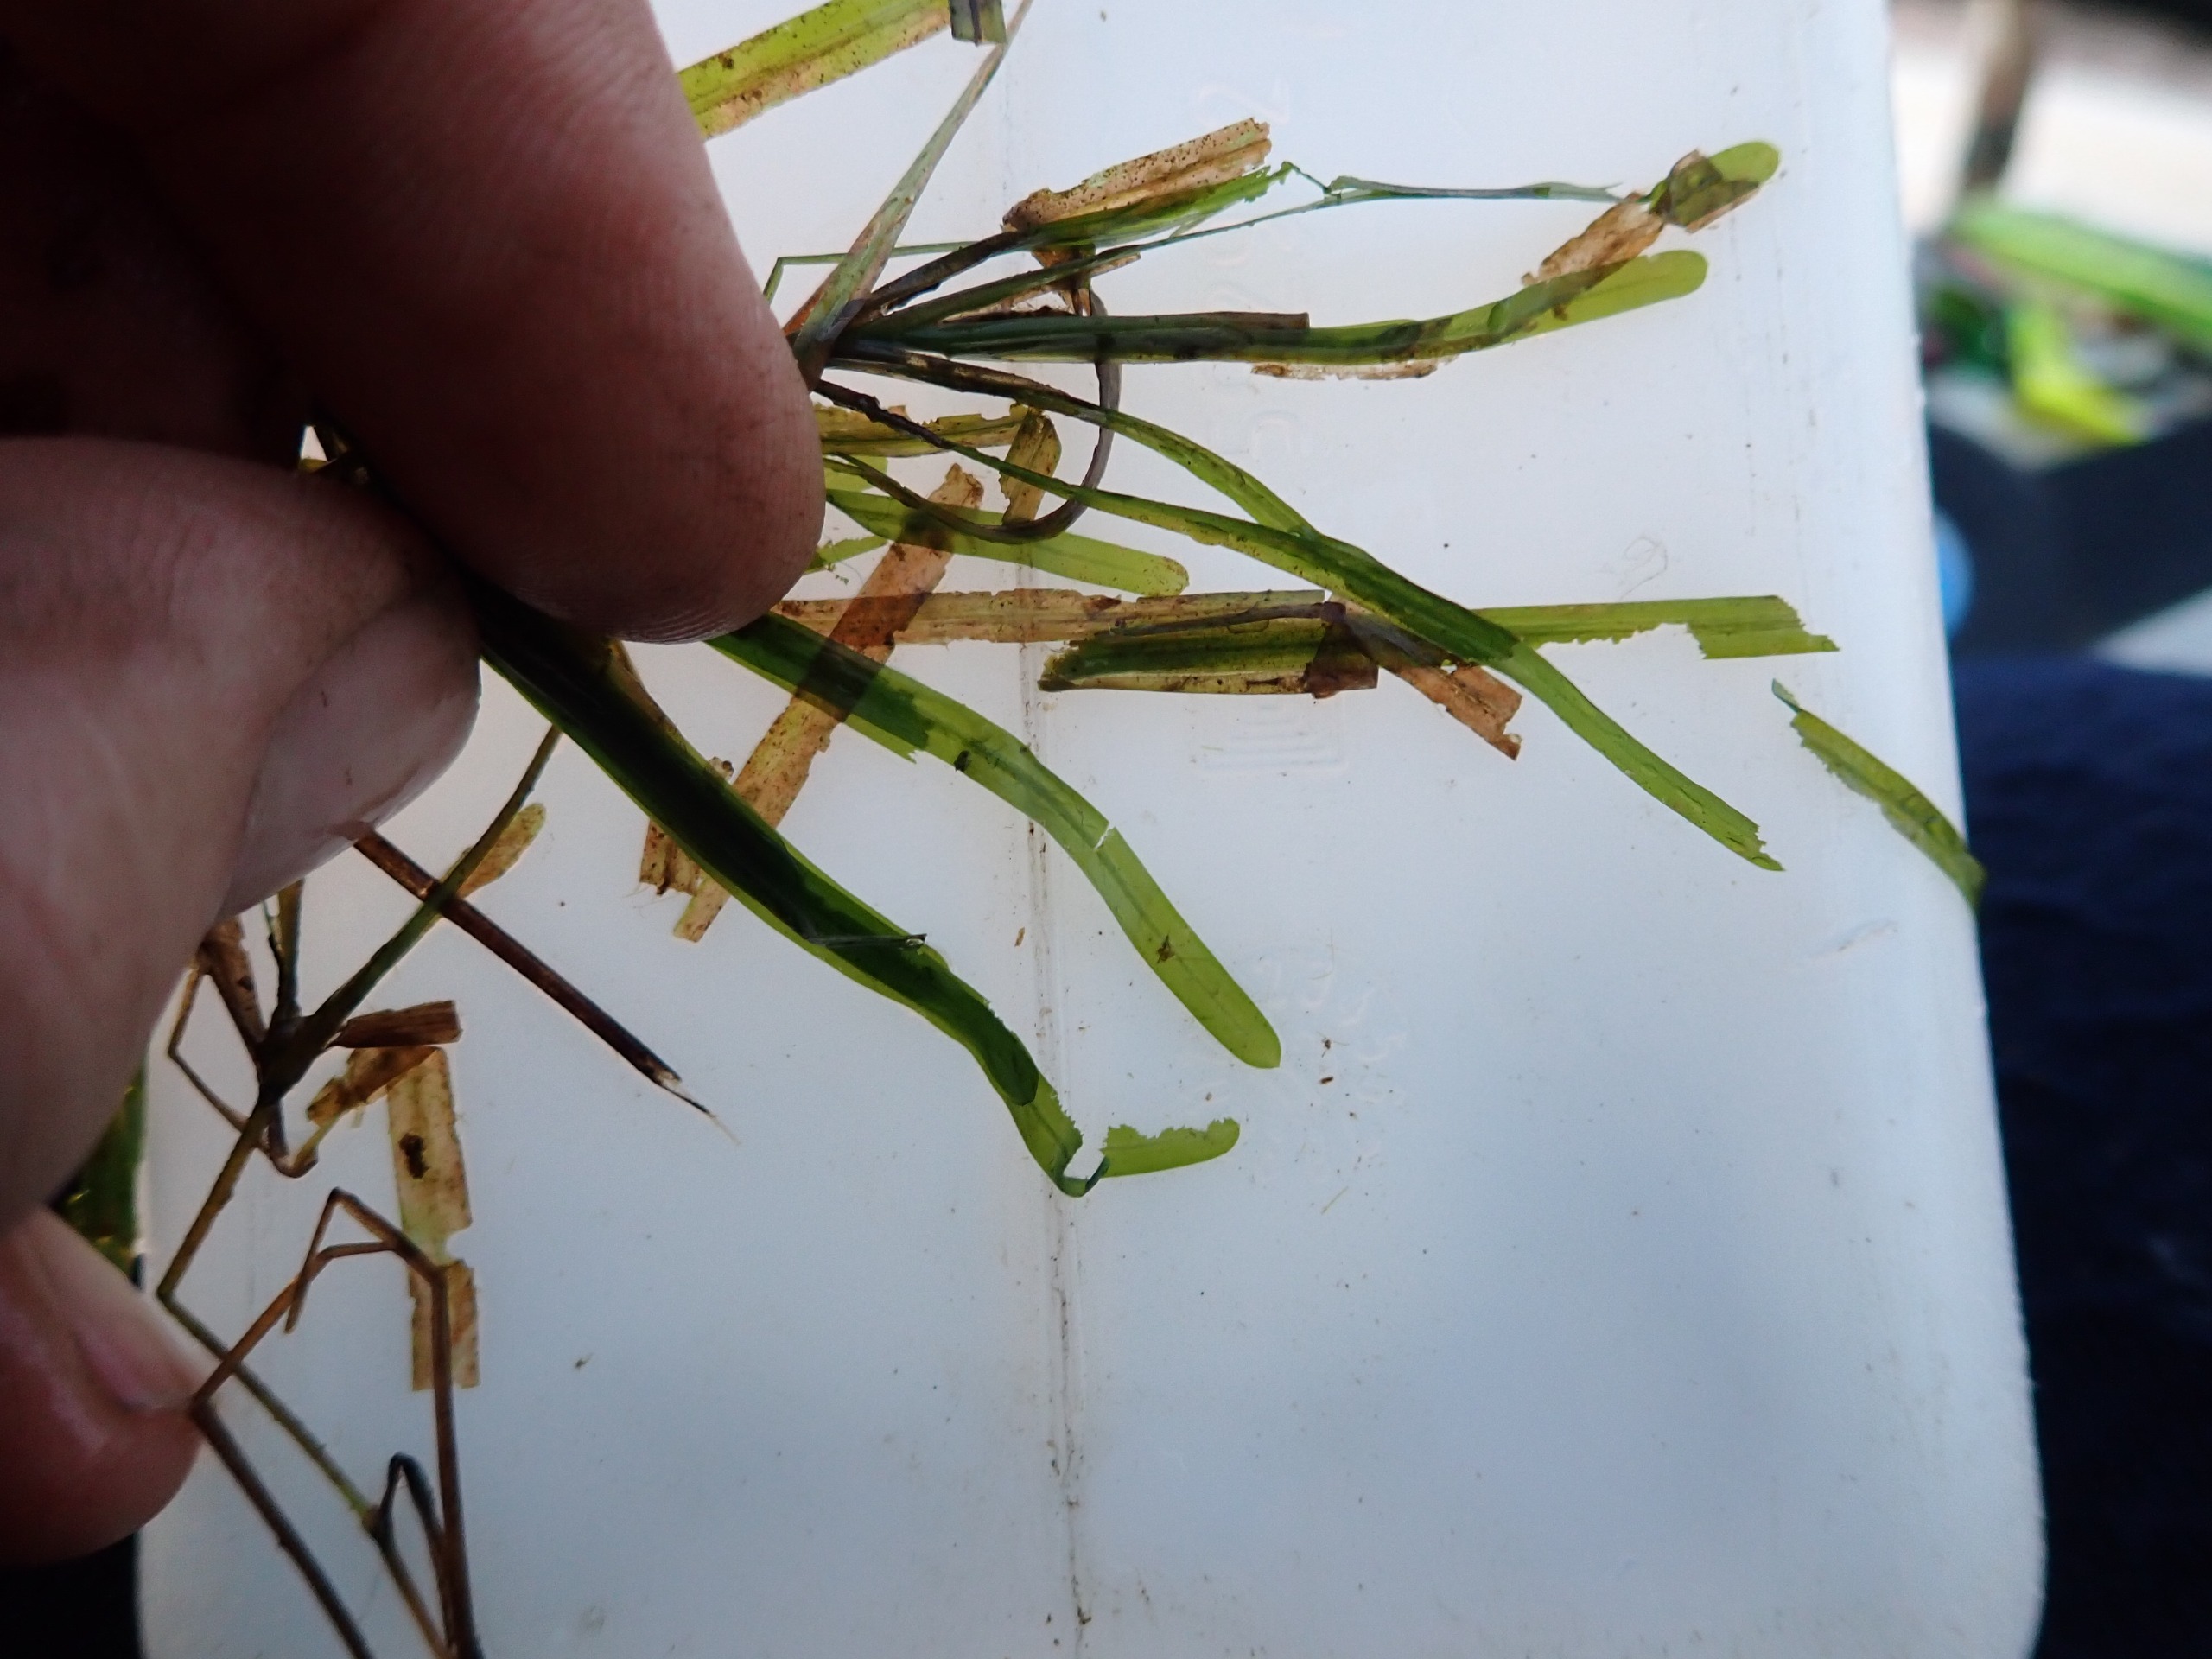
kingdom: Plantae
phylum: Tracheophyta
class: Liliopsida
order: Alismatales
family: Potamogetonaceae
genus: Potamogeton
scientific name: Potamogeton obtusifolius
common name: Butbladet vandaks
